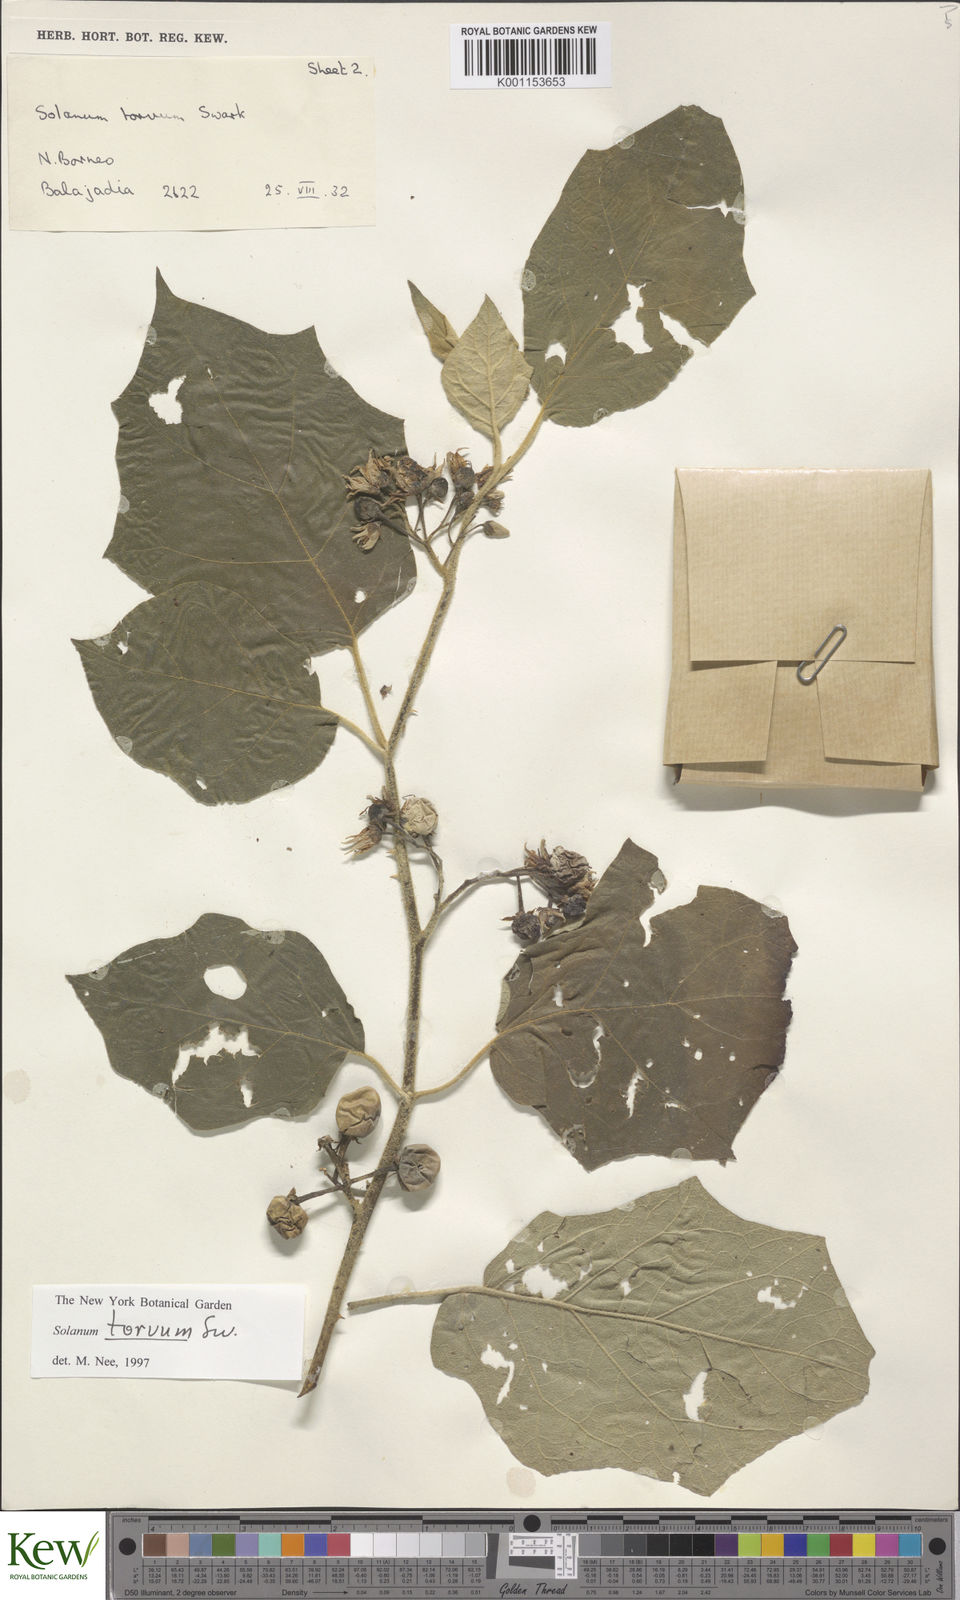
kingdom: Plantae
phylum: Tracheophyta
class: Magnoliopsida
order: Solanales
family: Solanaceae
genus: Solanum
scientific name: Solanum torvum
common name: Turkey berry
